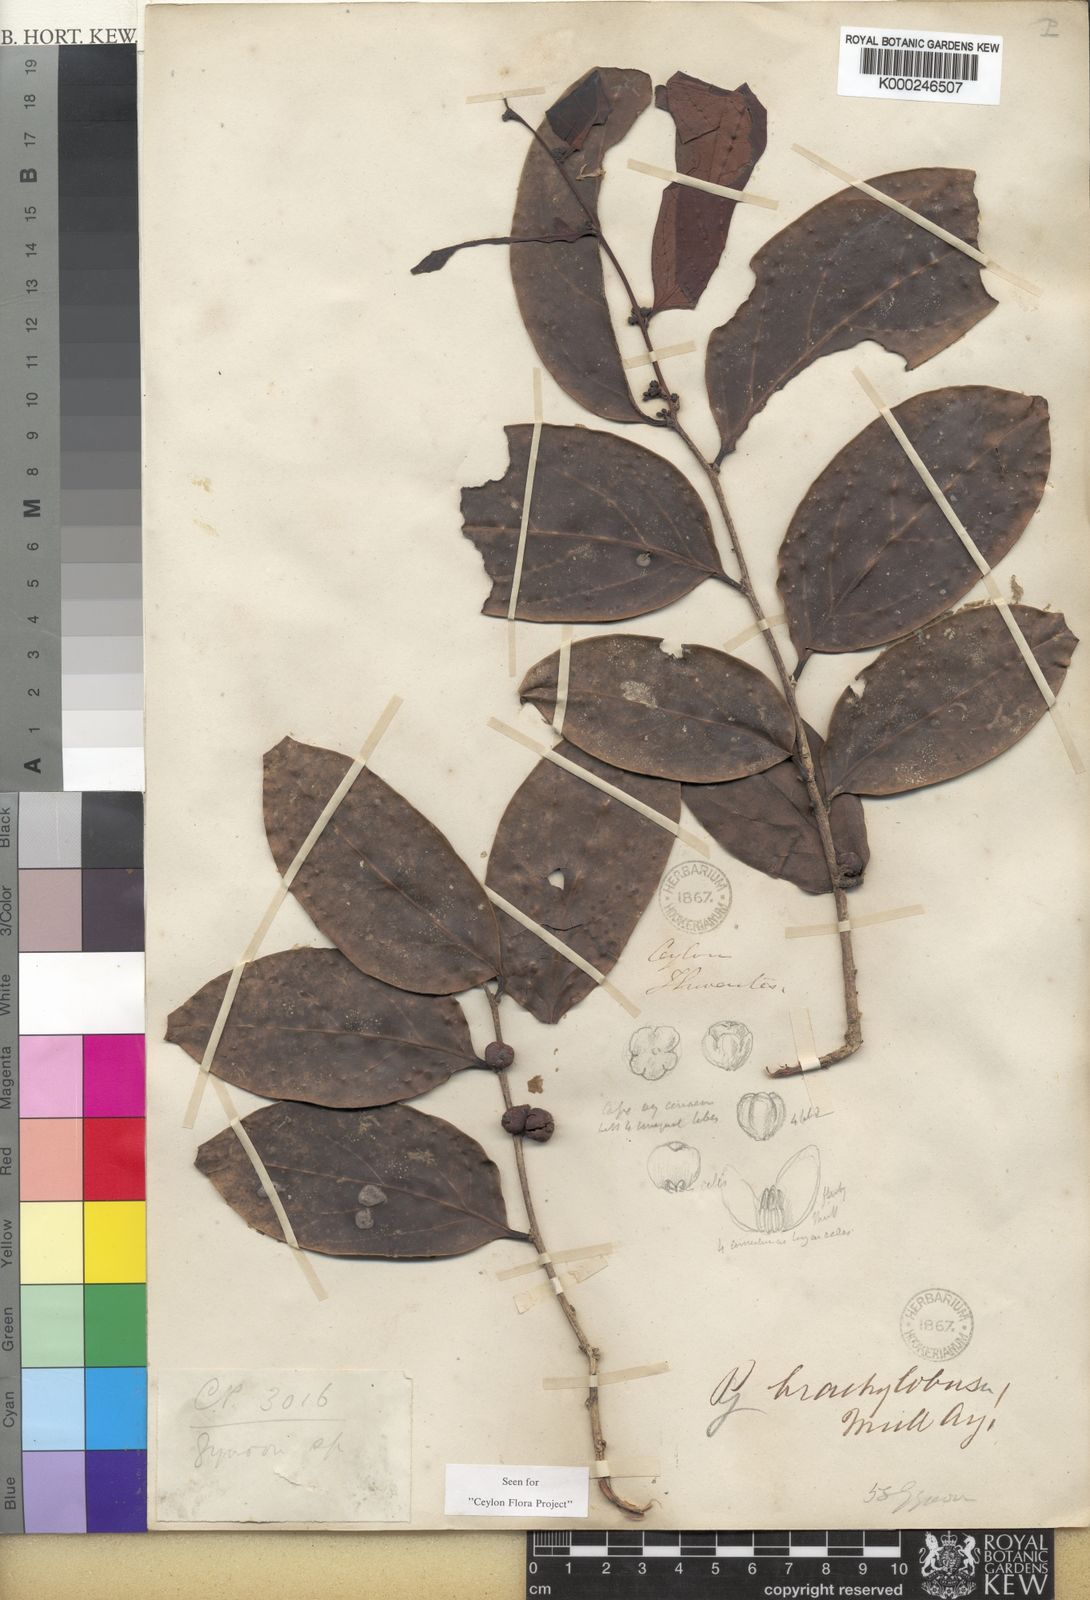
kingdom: Plantae
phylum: Tracheophyta
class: Magnoliopsida
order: Malpighiales
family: Phyllanthaceae
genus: Glochidion
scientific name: Glochidion coriaceum
